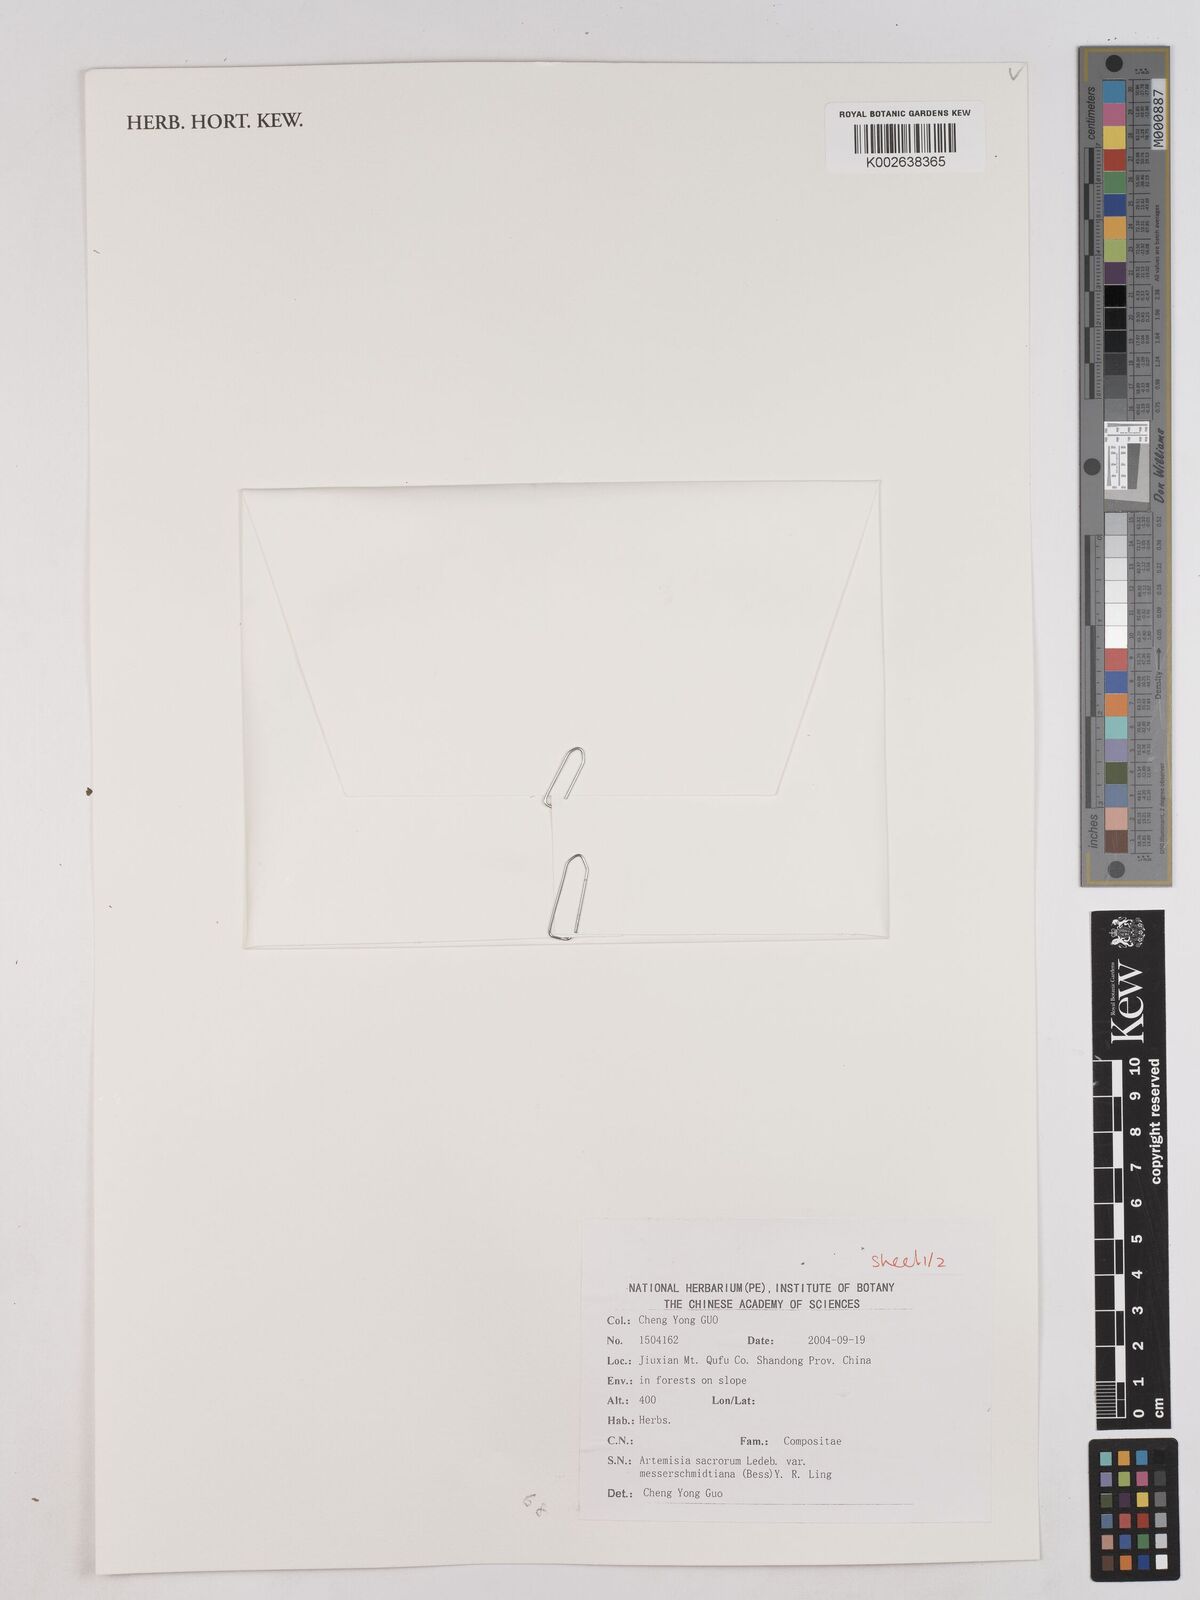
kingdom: Plantae
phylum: Tracheophyta
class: Magnoliopsida
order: Asterales
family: Asteraceae
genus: Artemisia
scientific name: Artemisia gmelinii
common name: Gmelin's wormwood
